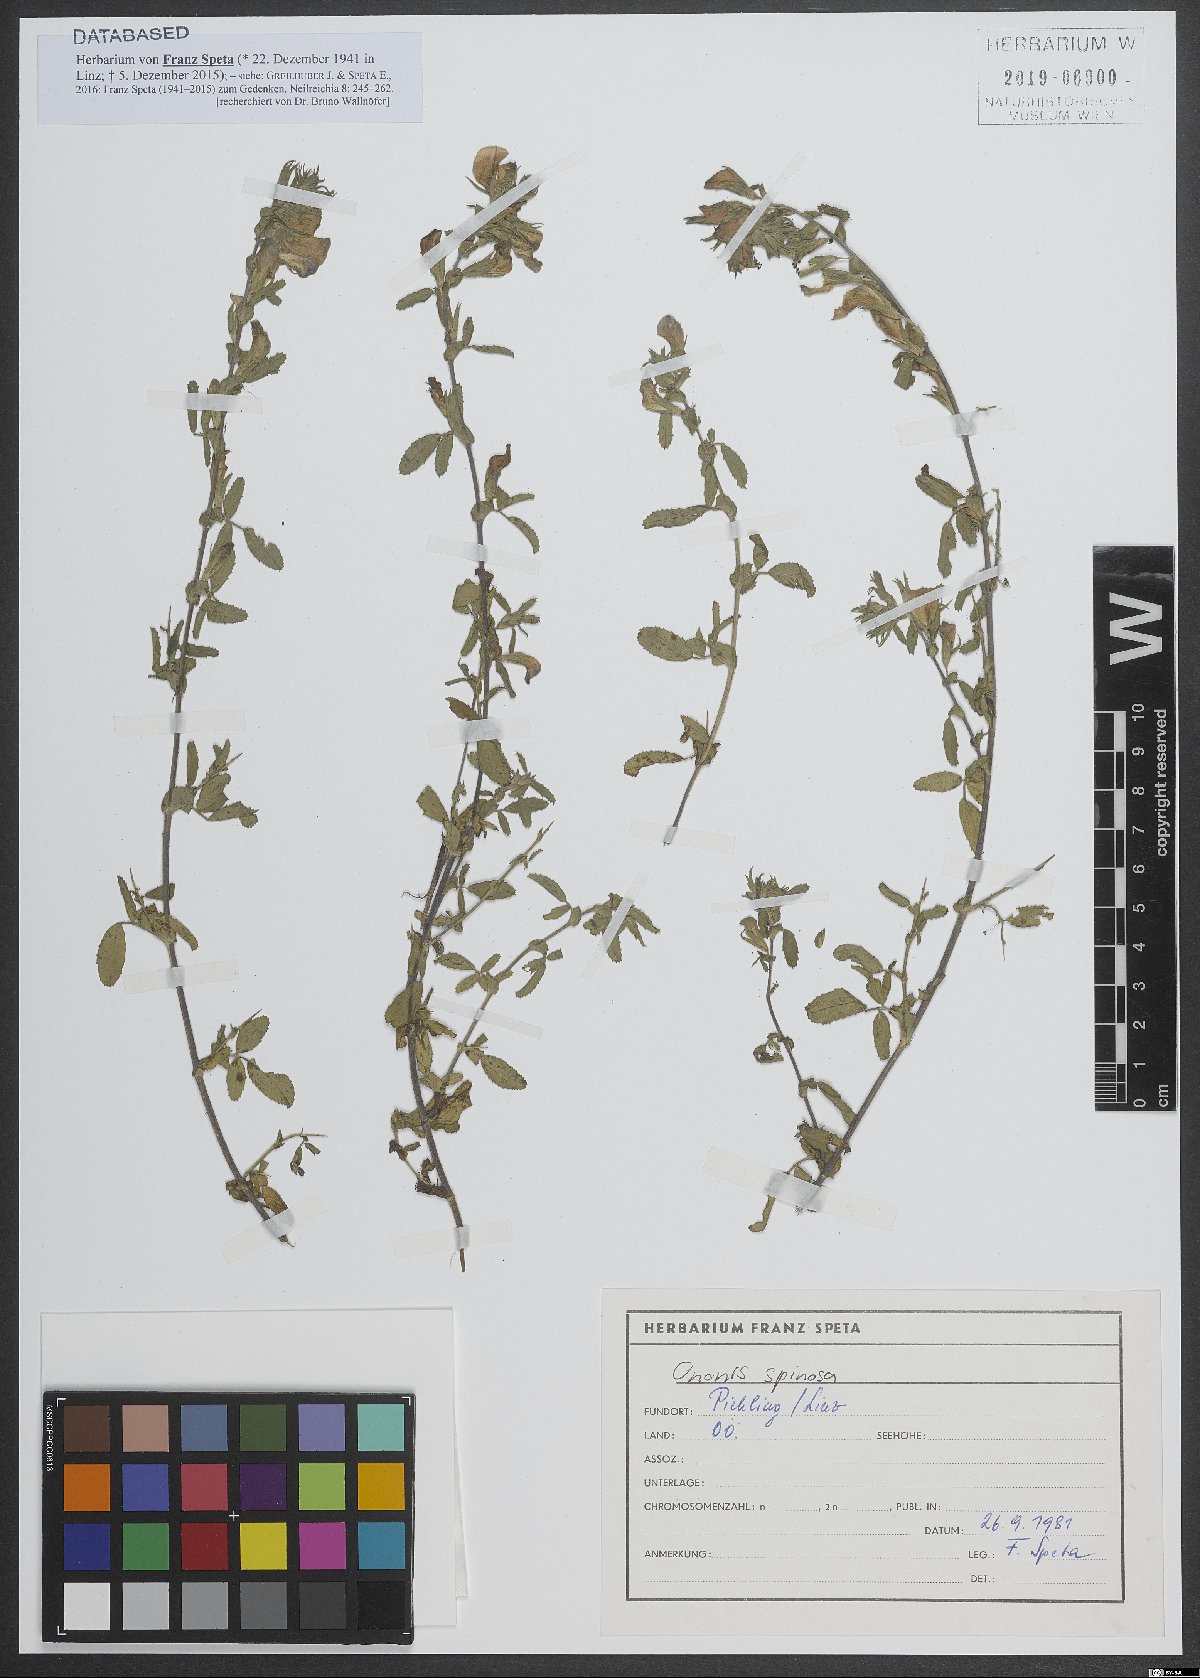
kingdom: Plantae
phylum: Tracheophyta
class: Magnoliopsida
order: Fabales
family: Fabaceae
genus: Ononis
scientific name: Ononis spinosa
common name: Spiny restharrow
